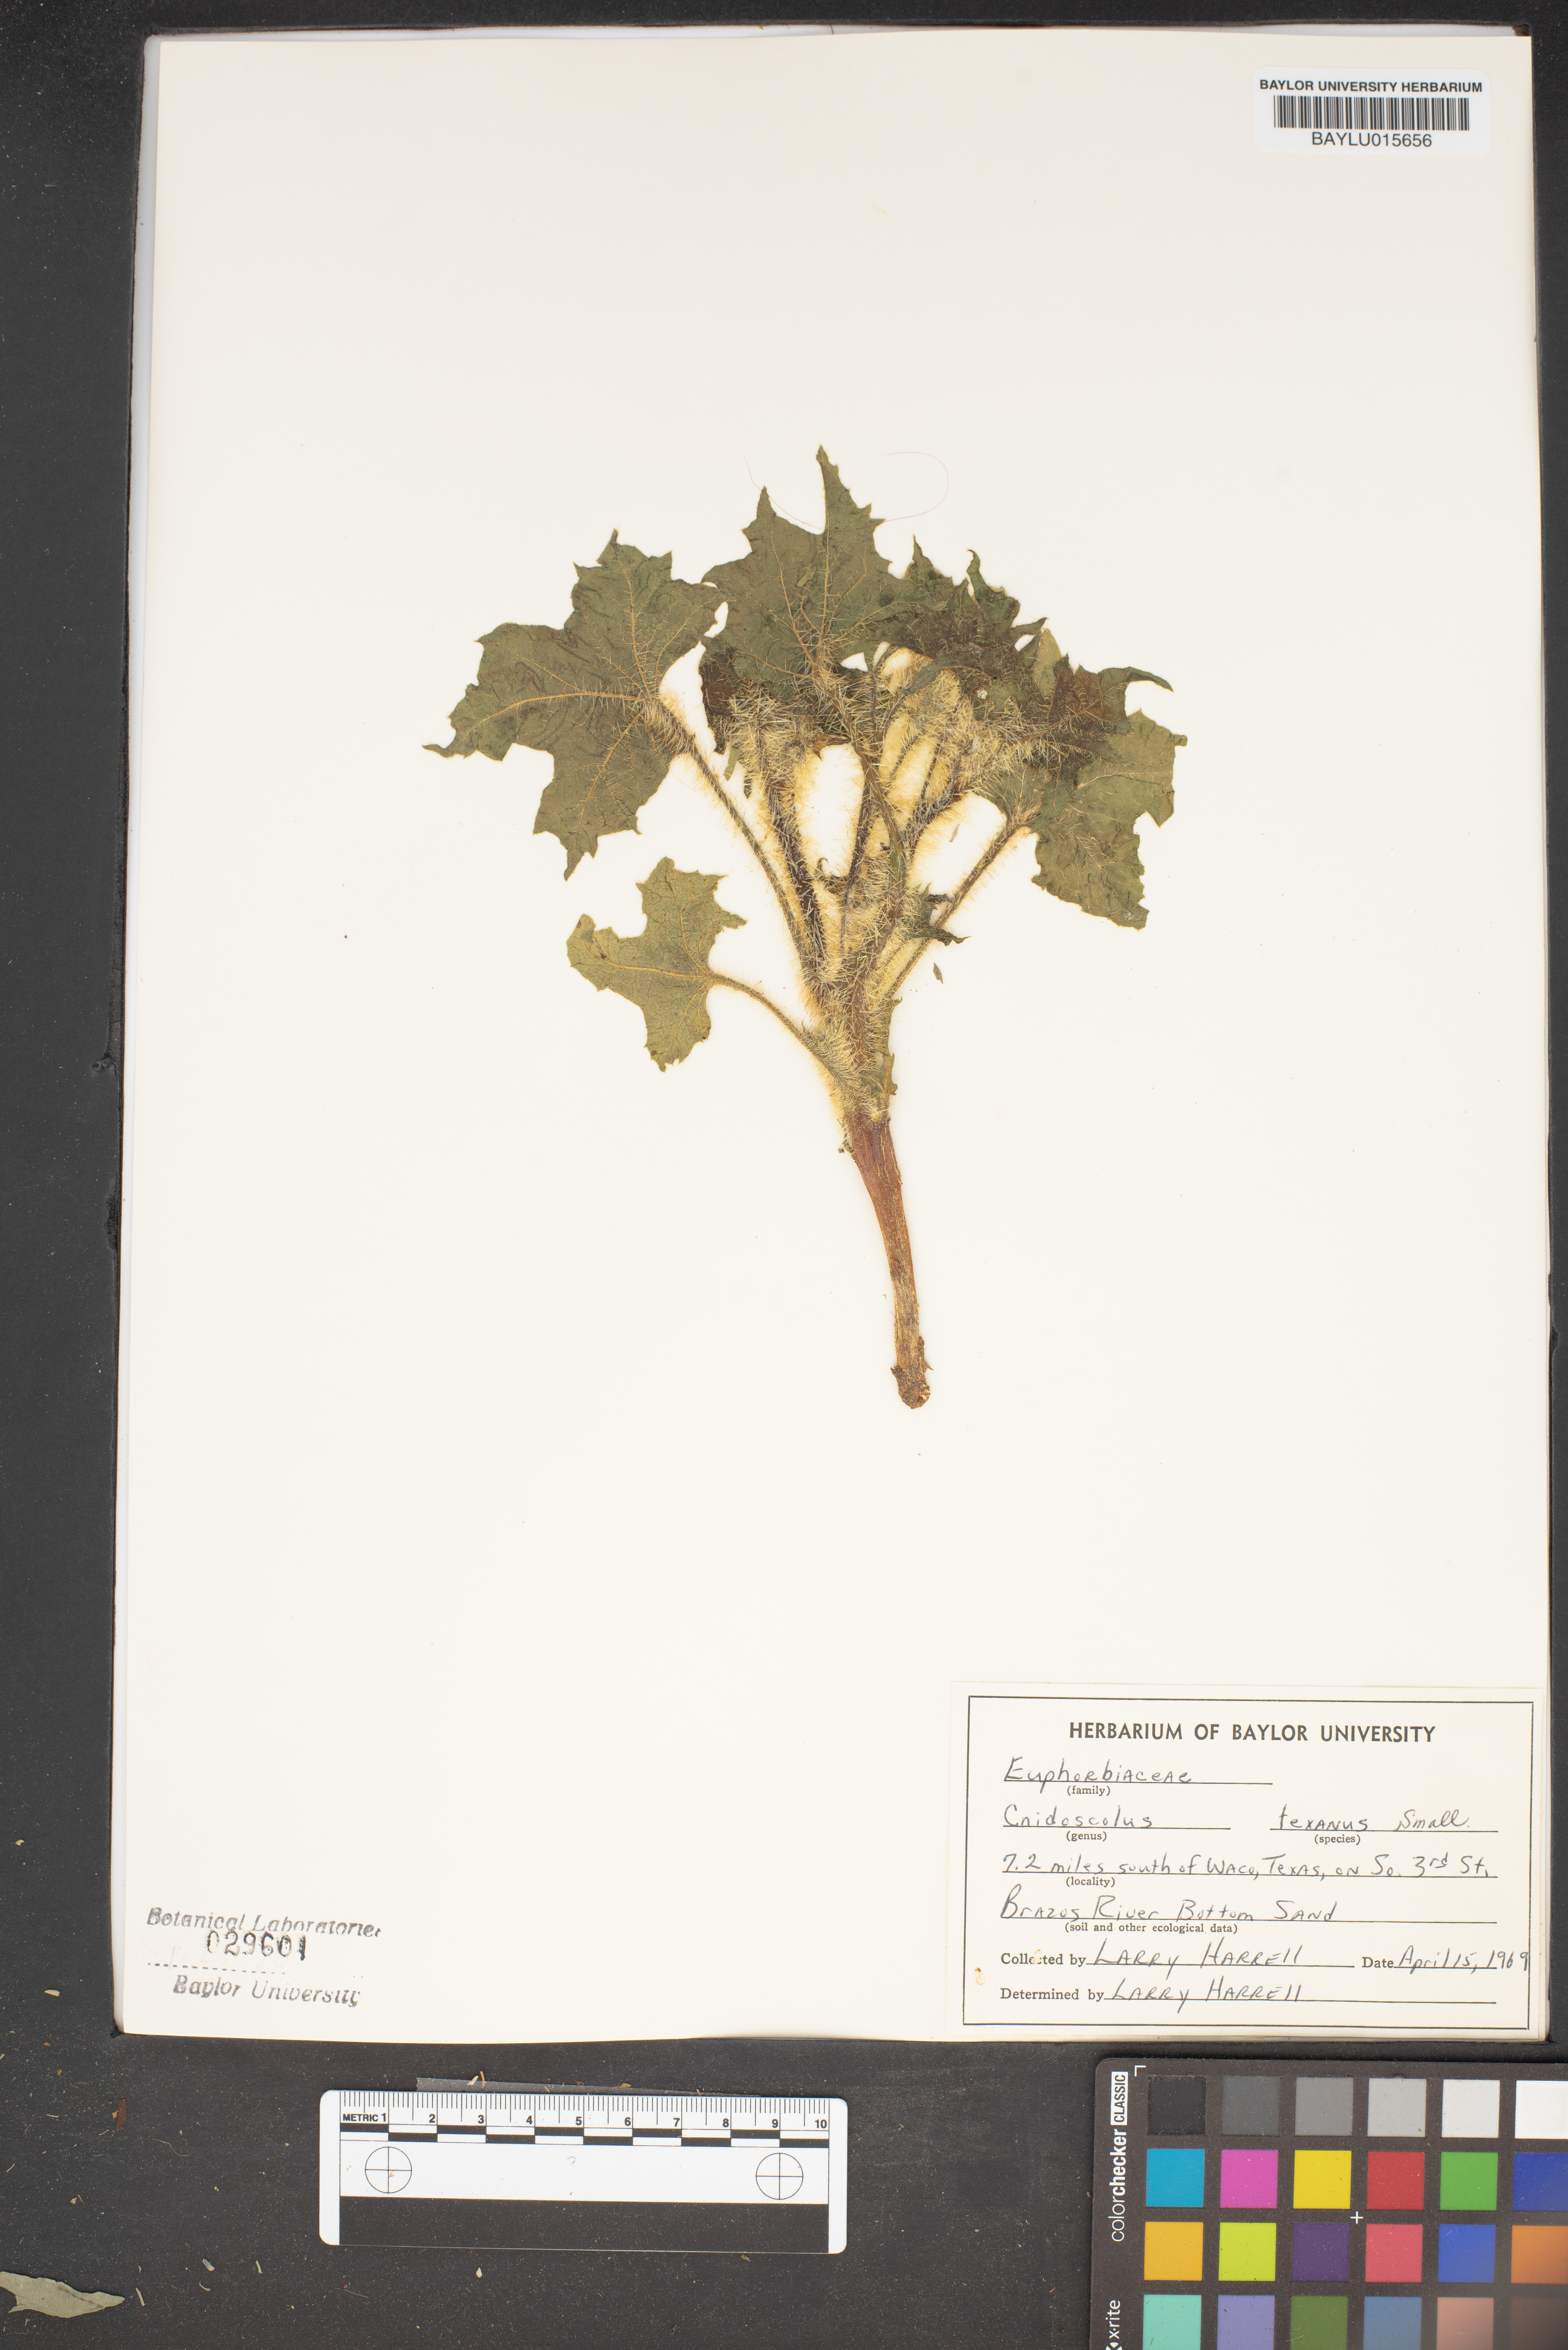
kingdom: Plantae
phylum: Tracheophyta
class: Magnoliopsida
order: Malpighiales
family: Euphorbiaceae
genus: Cnidoscolus
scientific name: Cnidoscolus texanus
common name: Texas bull-nettle
